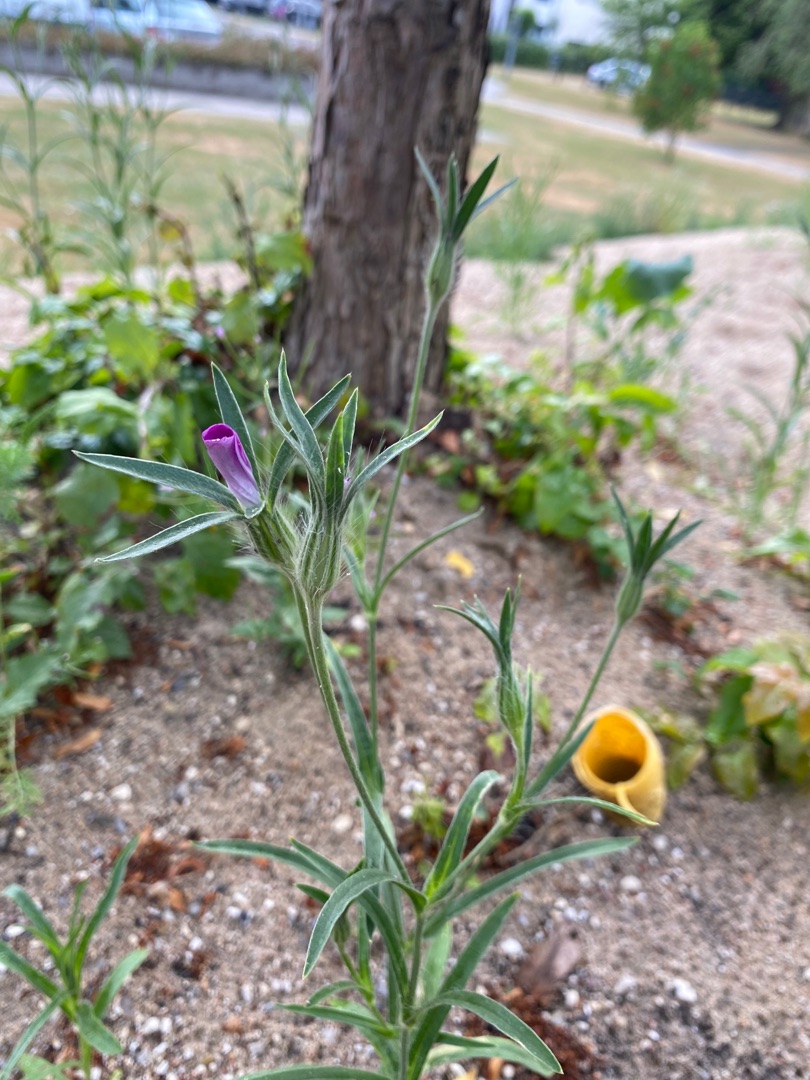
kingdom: Plantae
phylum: Tracheophyta
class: Magnoliopsida
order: Caryophyllales
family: Caryophyllaceae
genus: Agrostemma
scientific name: Agrostemma githago
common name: Klinte
